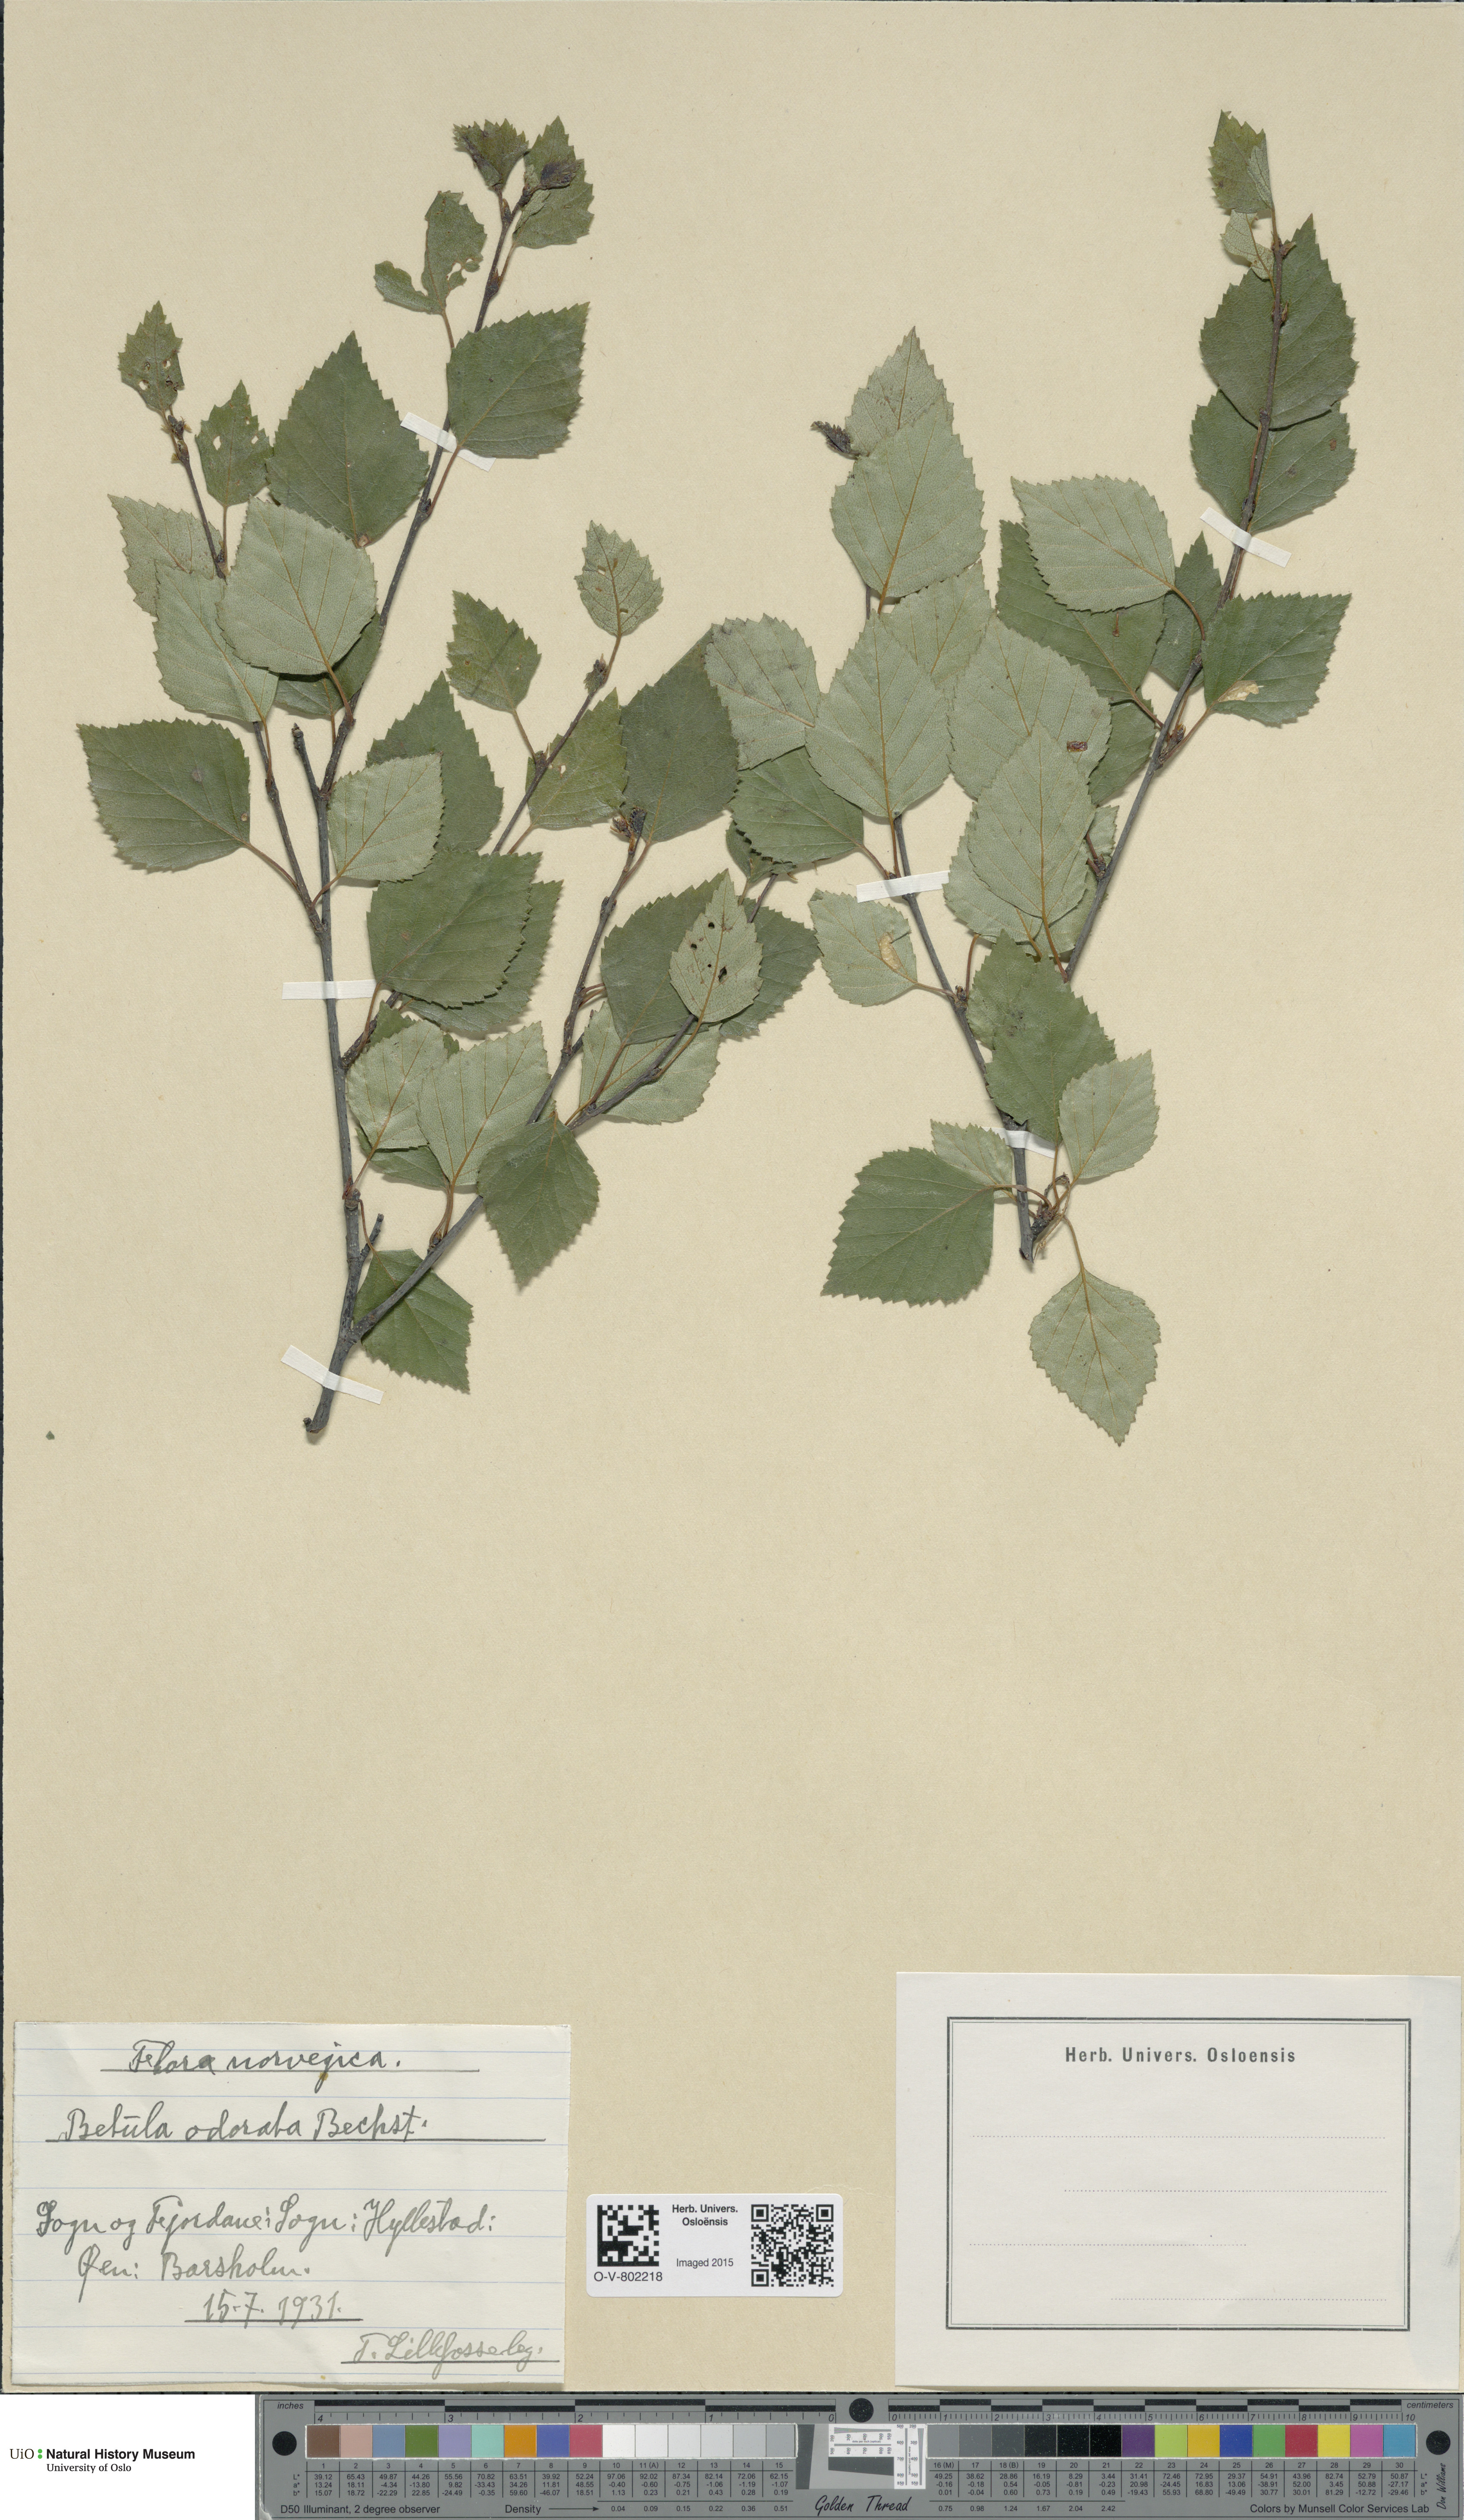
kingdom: Plantae
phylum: Tracheophyta
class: Magnoliopsida
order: Fagales
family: Betulaceae
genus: Betula
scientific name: Betula pubescens
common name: Downy birch
